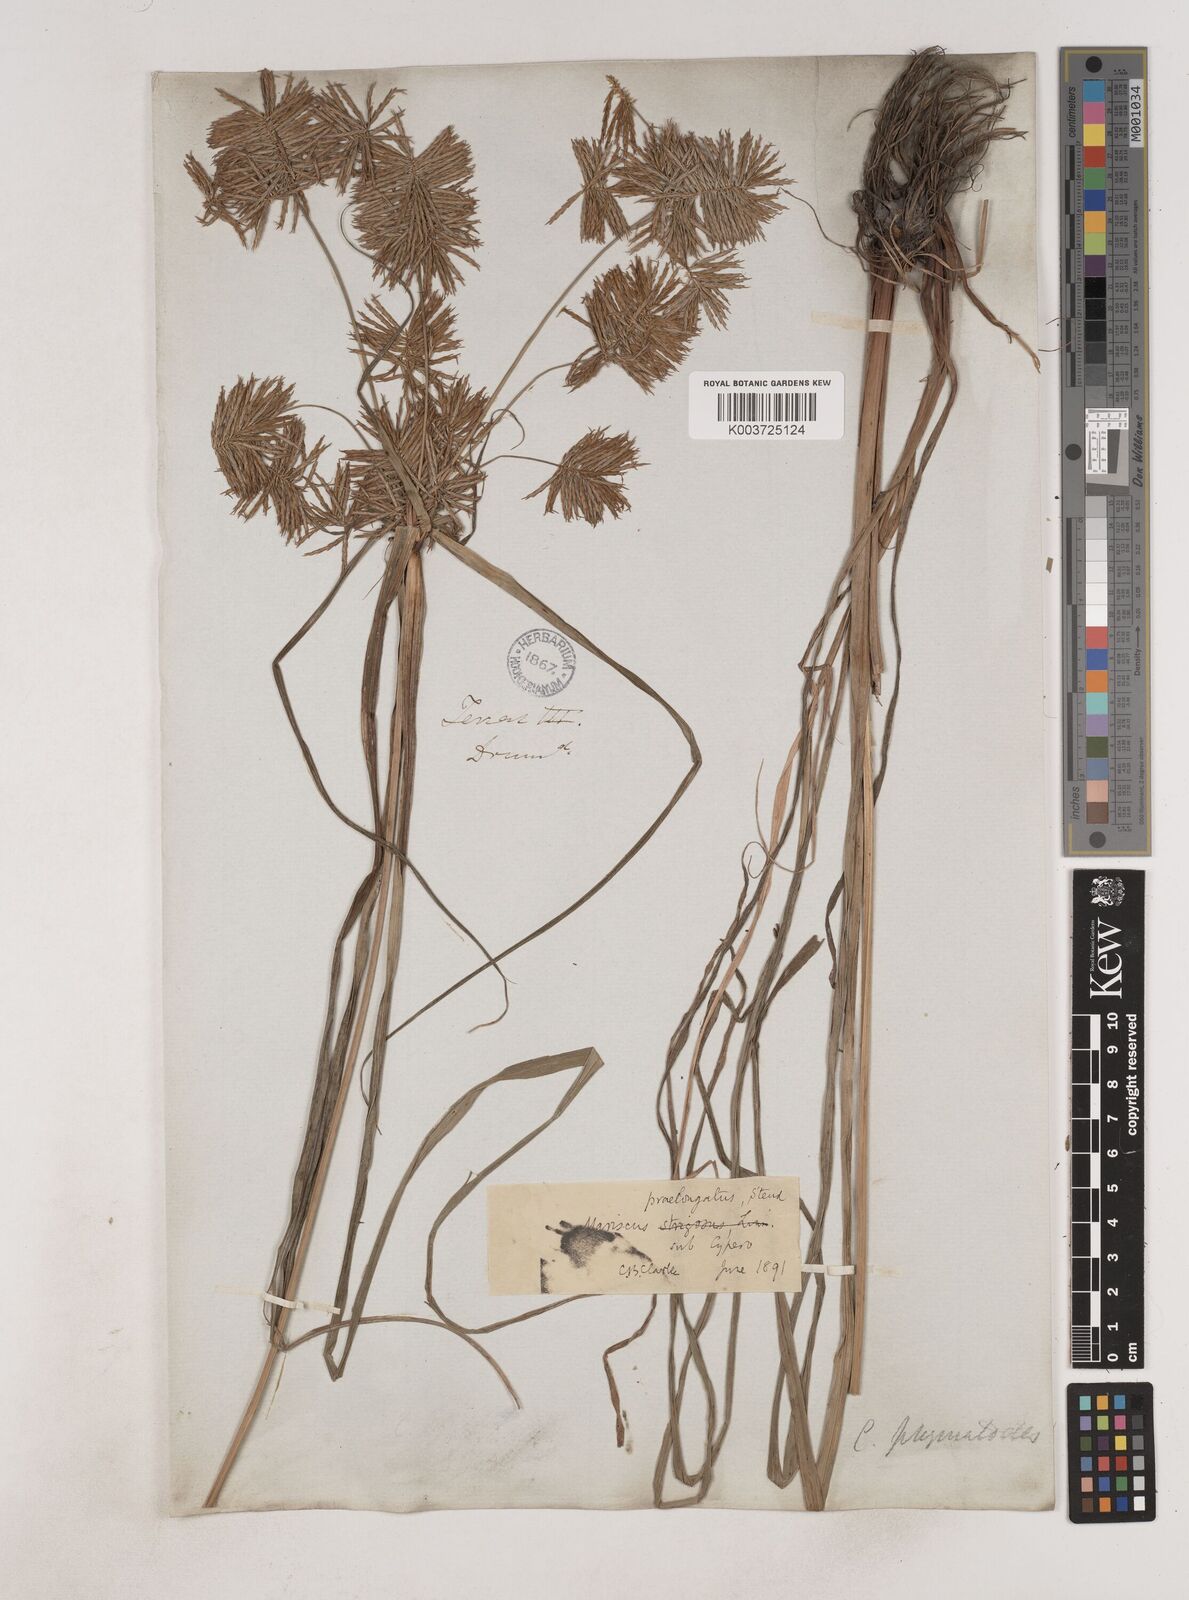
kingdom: Plantae
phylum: Tracheophyta
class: Liliopsida
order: Poales
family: Cyperaceae
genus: Cyperus
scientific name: Cyperus strigosus
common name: False nutsedge
